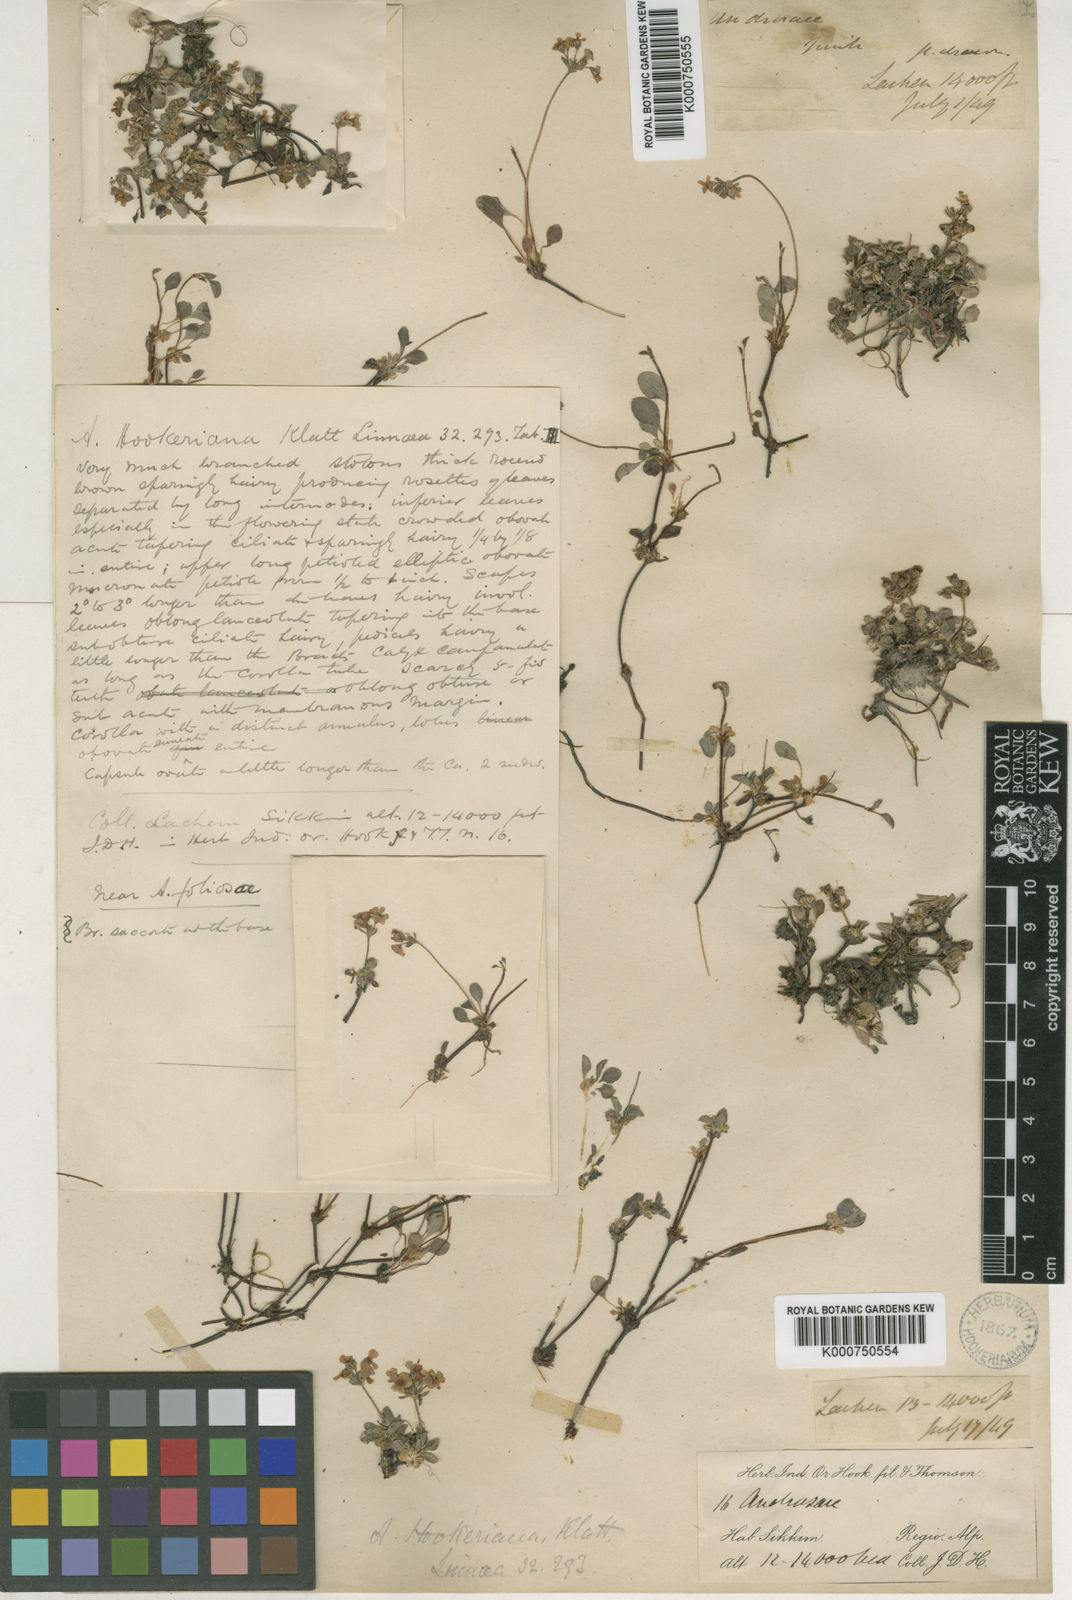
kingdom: Plantae
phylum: Tracheophyta
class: Magnoliopsida
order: Ericales
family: Primulaceae
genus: Androsace
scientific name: Androsace hookeriana
